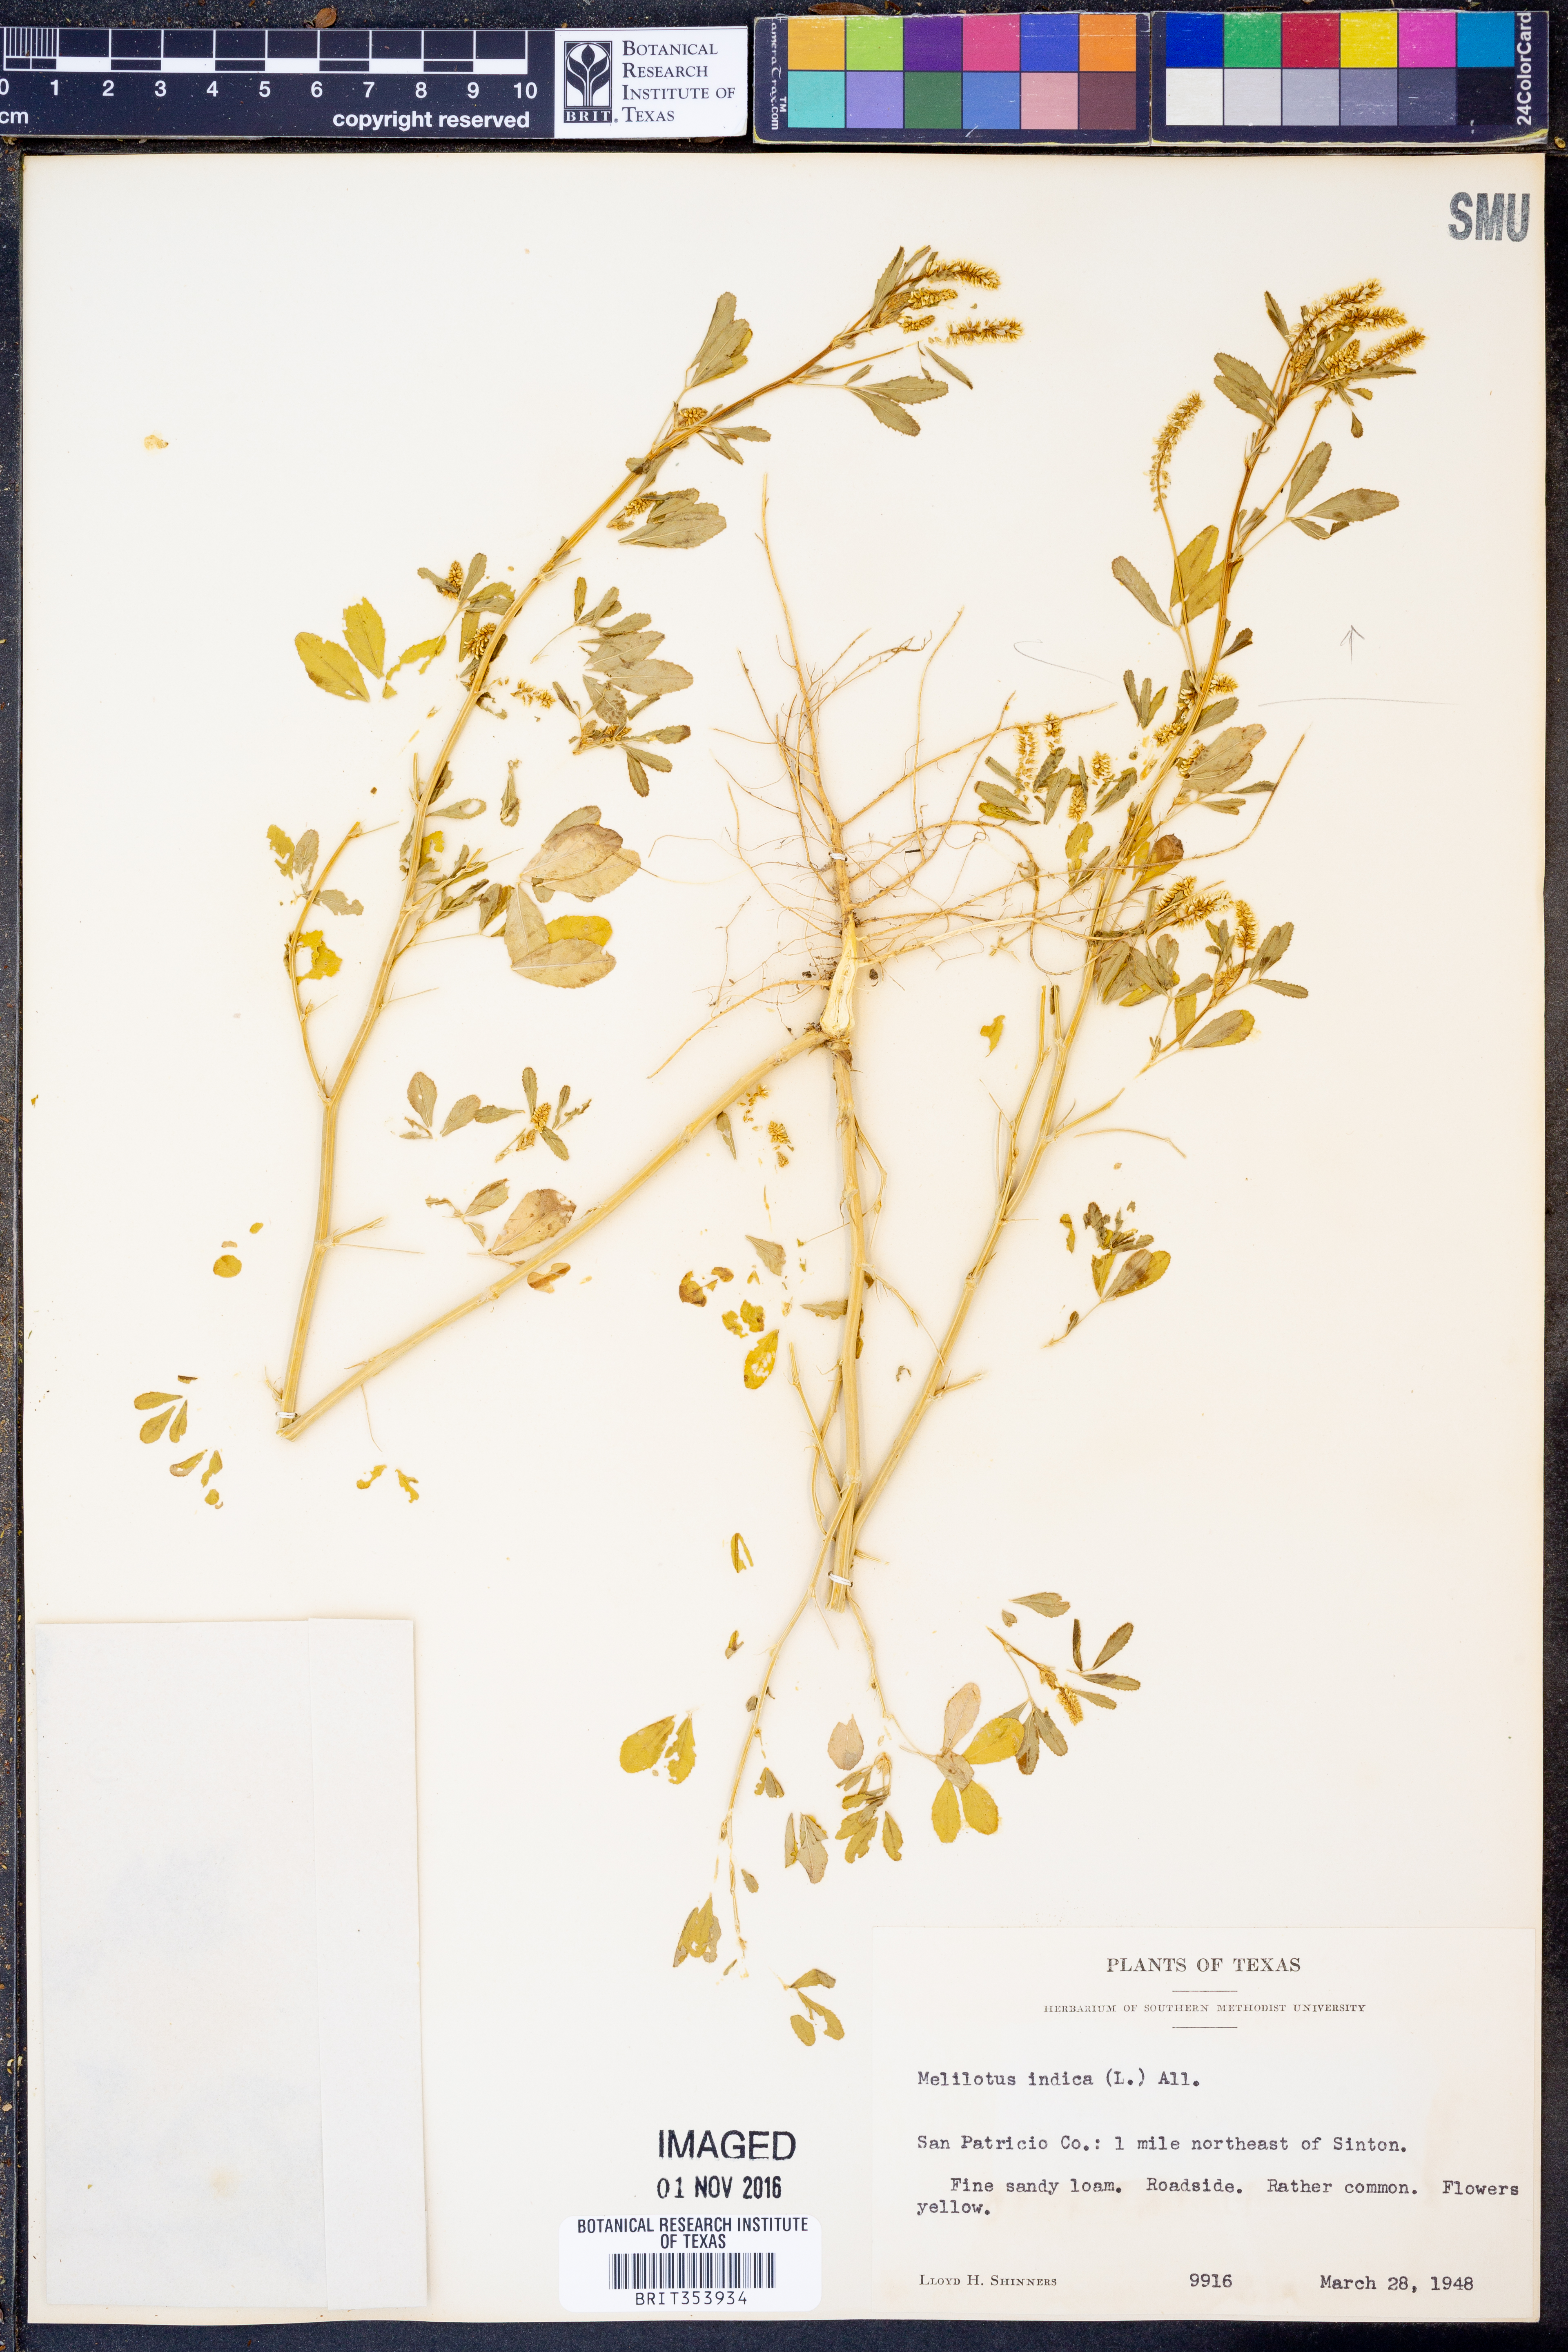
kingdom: Plantae
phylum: Tracheophyta
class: Magnoliopsida
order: Fabales
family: Fabaceae
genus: Melilotus
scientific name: Melilotus indicus
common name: Small melilot
